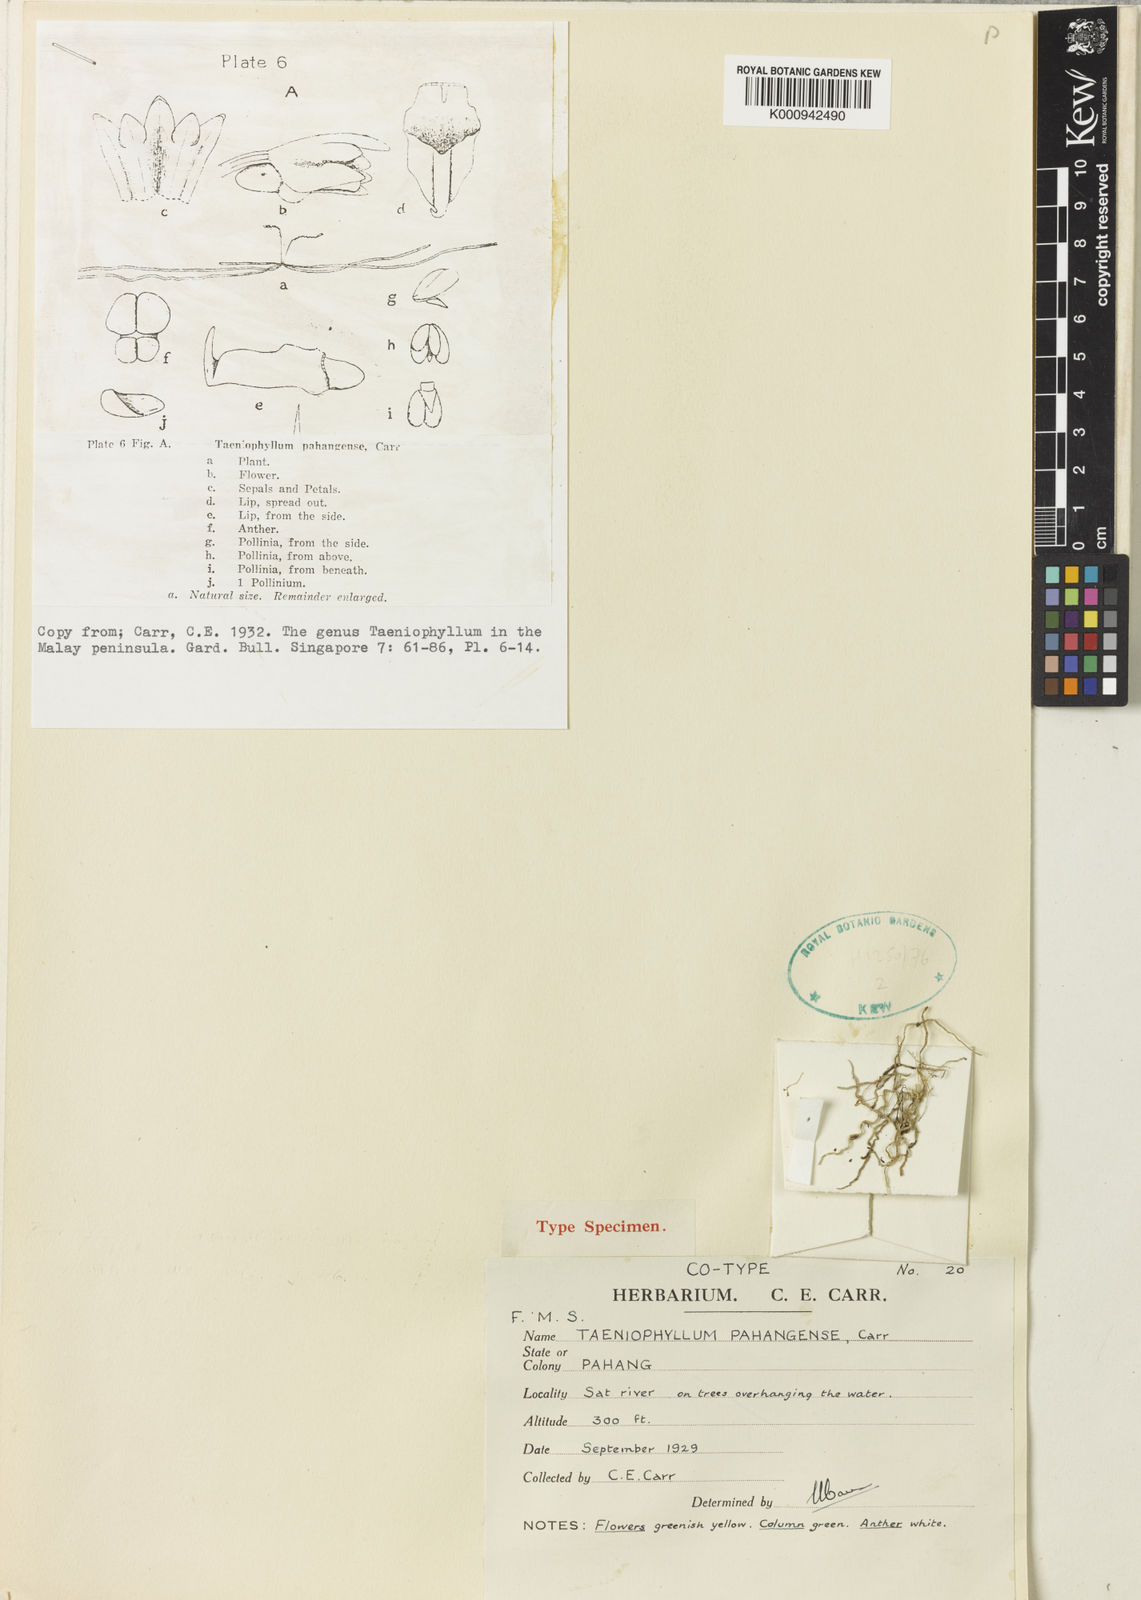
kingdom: Plantae
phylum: Tracheophyta
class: Liliopsida
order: Asparagales
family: Orchidaceae
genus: Taeniophyllum
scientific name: Taeniophyllum pahangense
